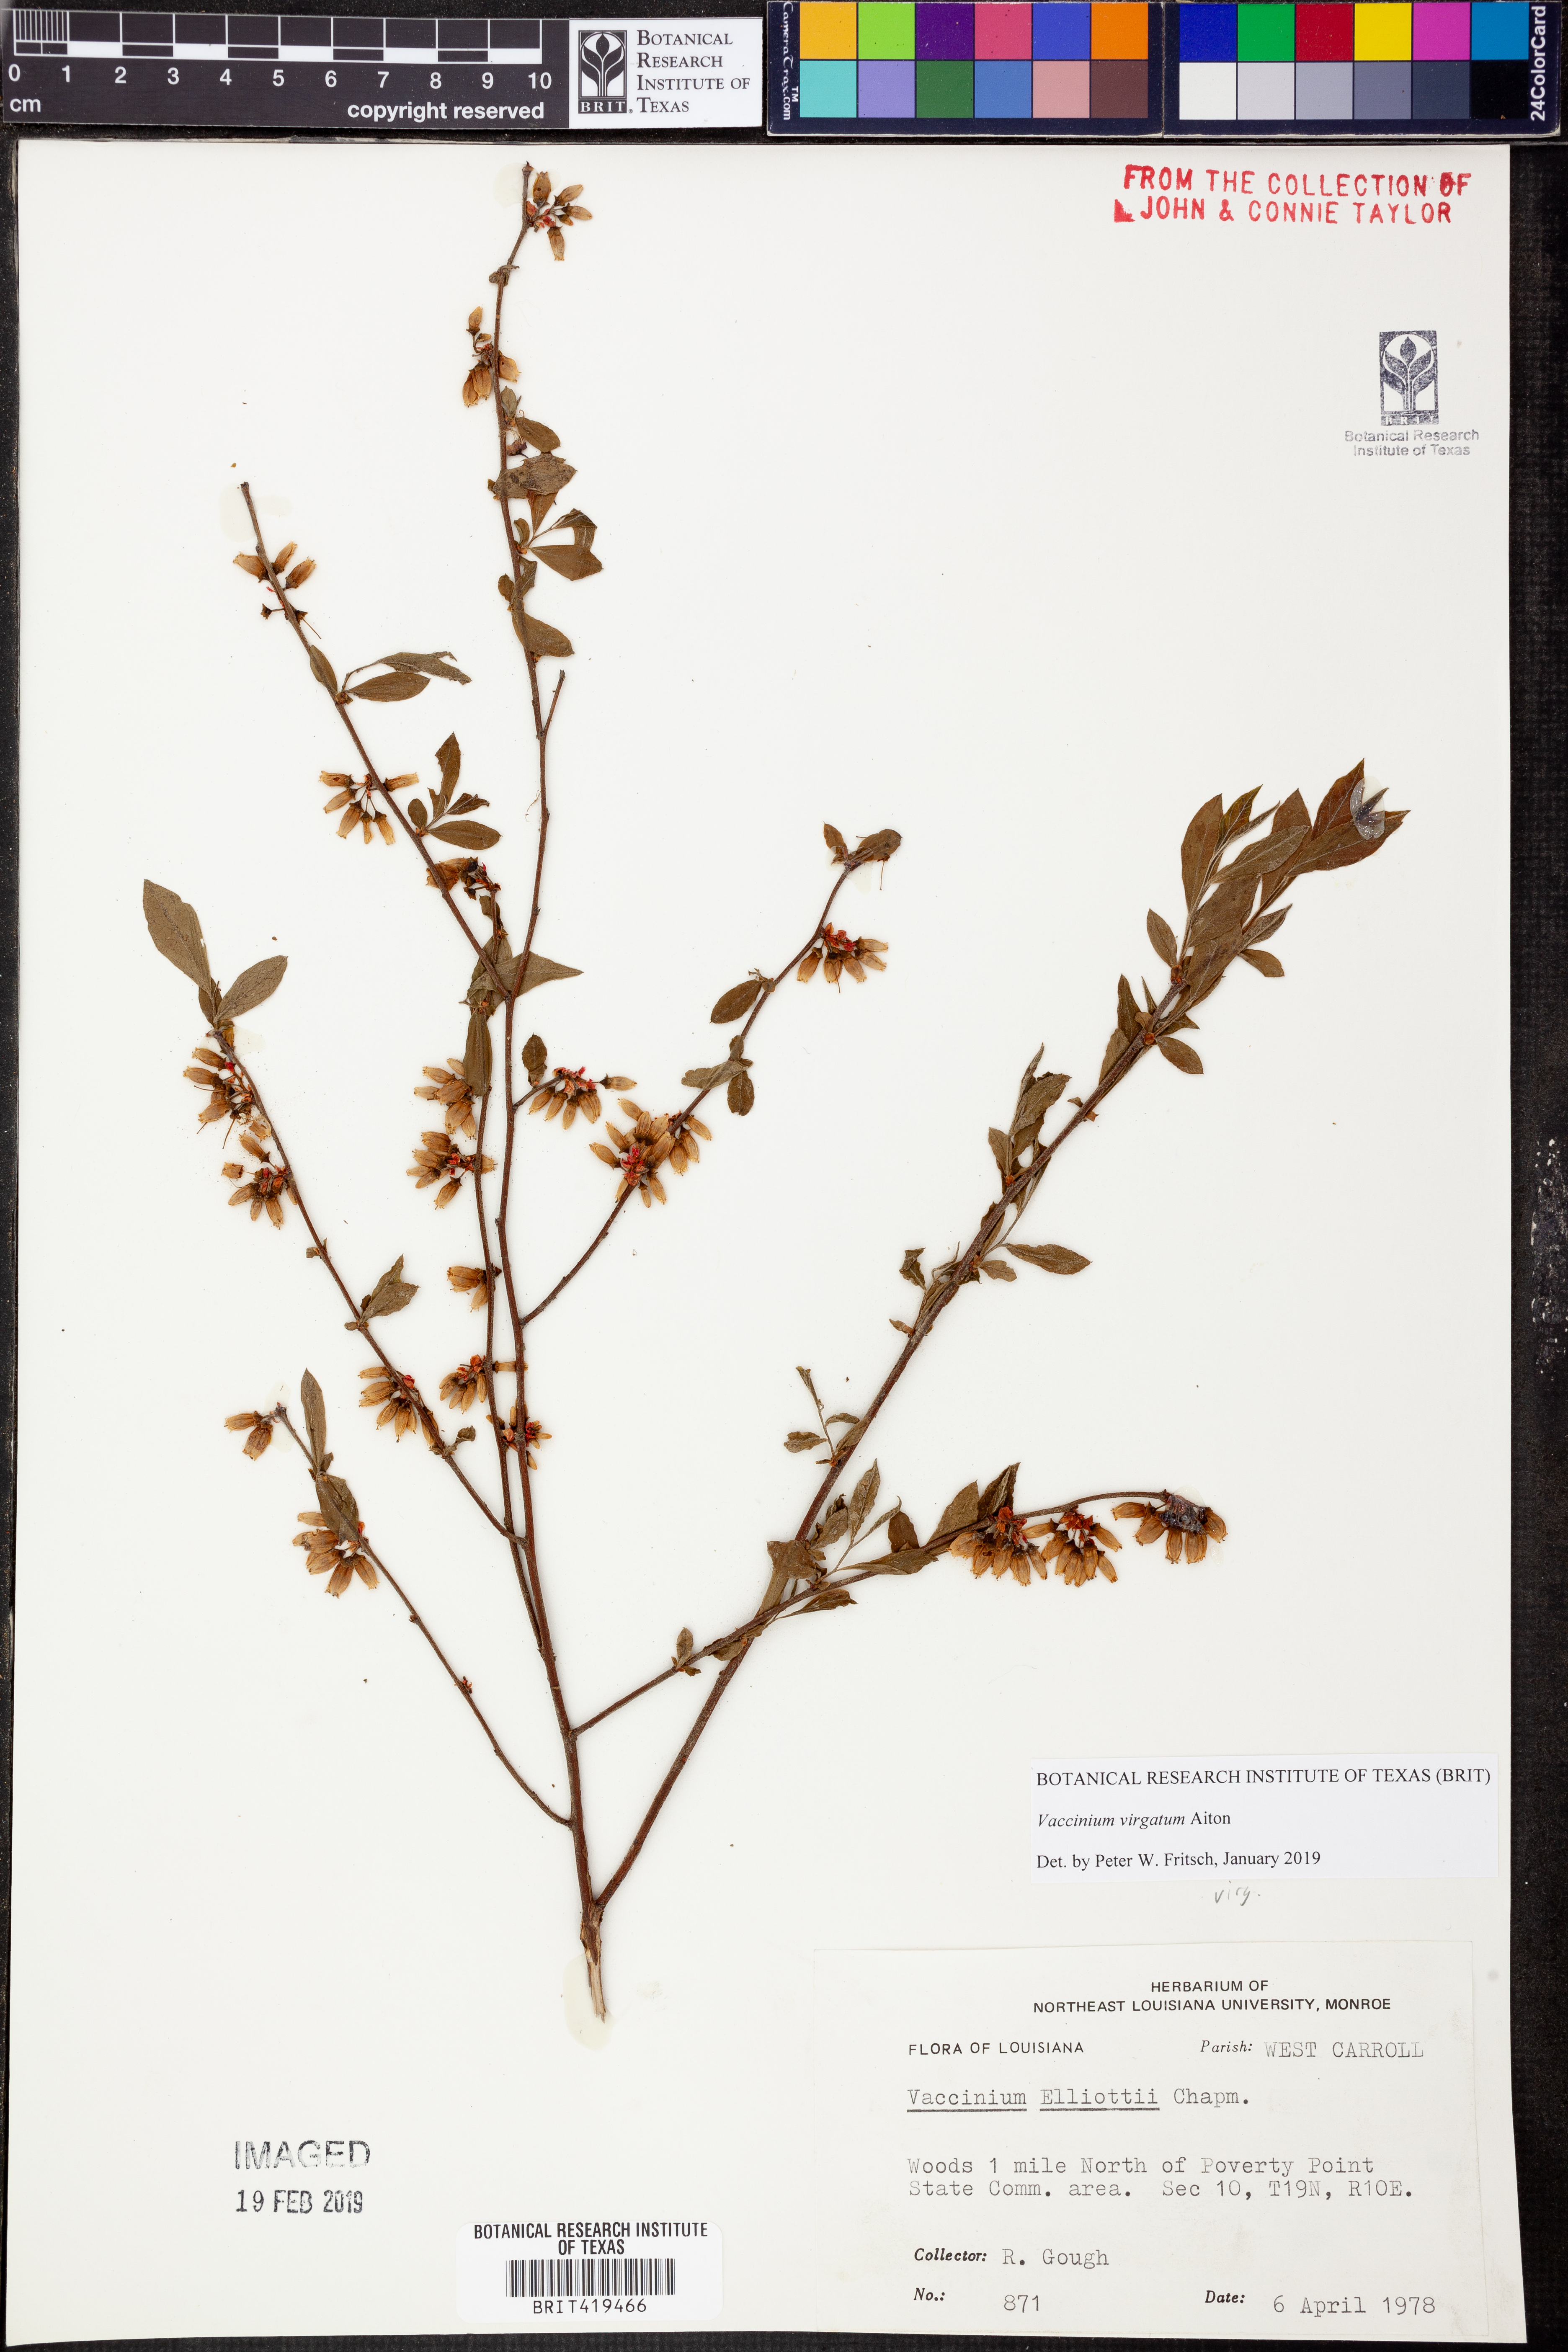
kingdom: Plantae
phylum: Tracheophyta
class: Magnoliopsida
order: Ericales
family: Ericaceae
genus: Vaccinium
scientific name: Vaccinium corymbosum
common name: Blueberry
